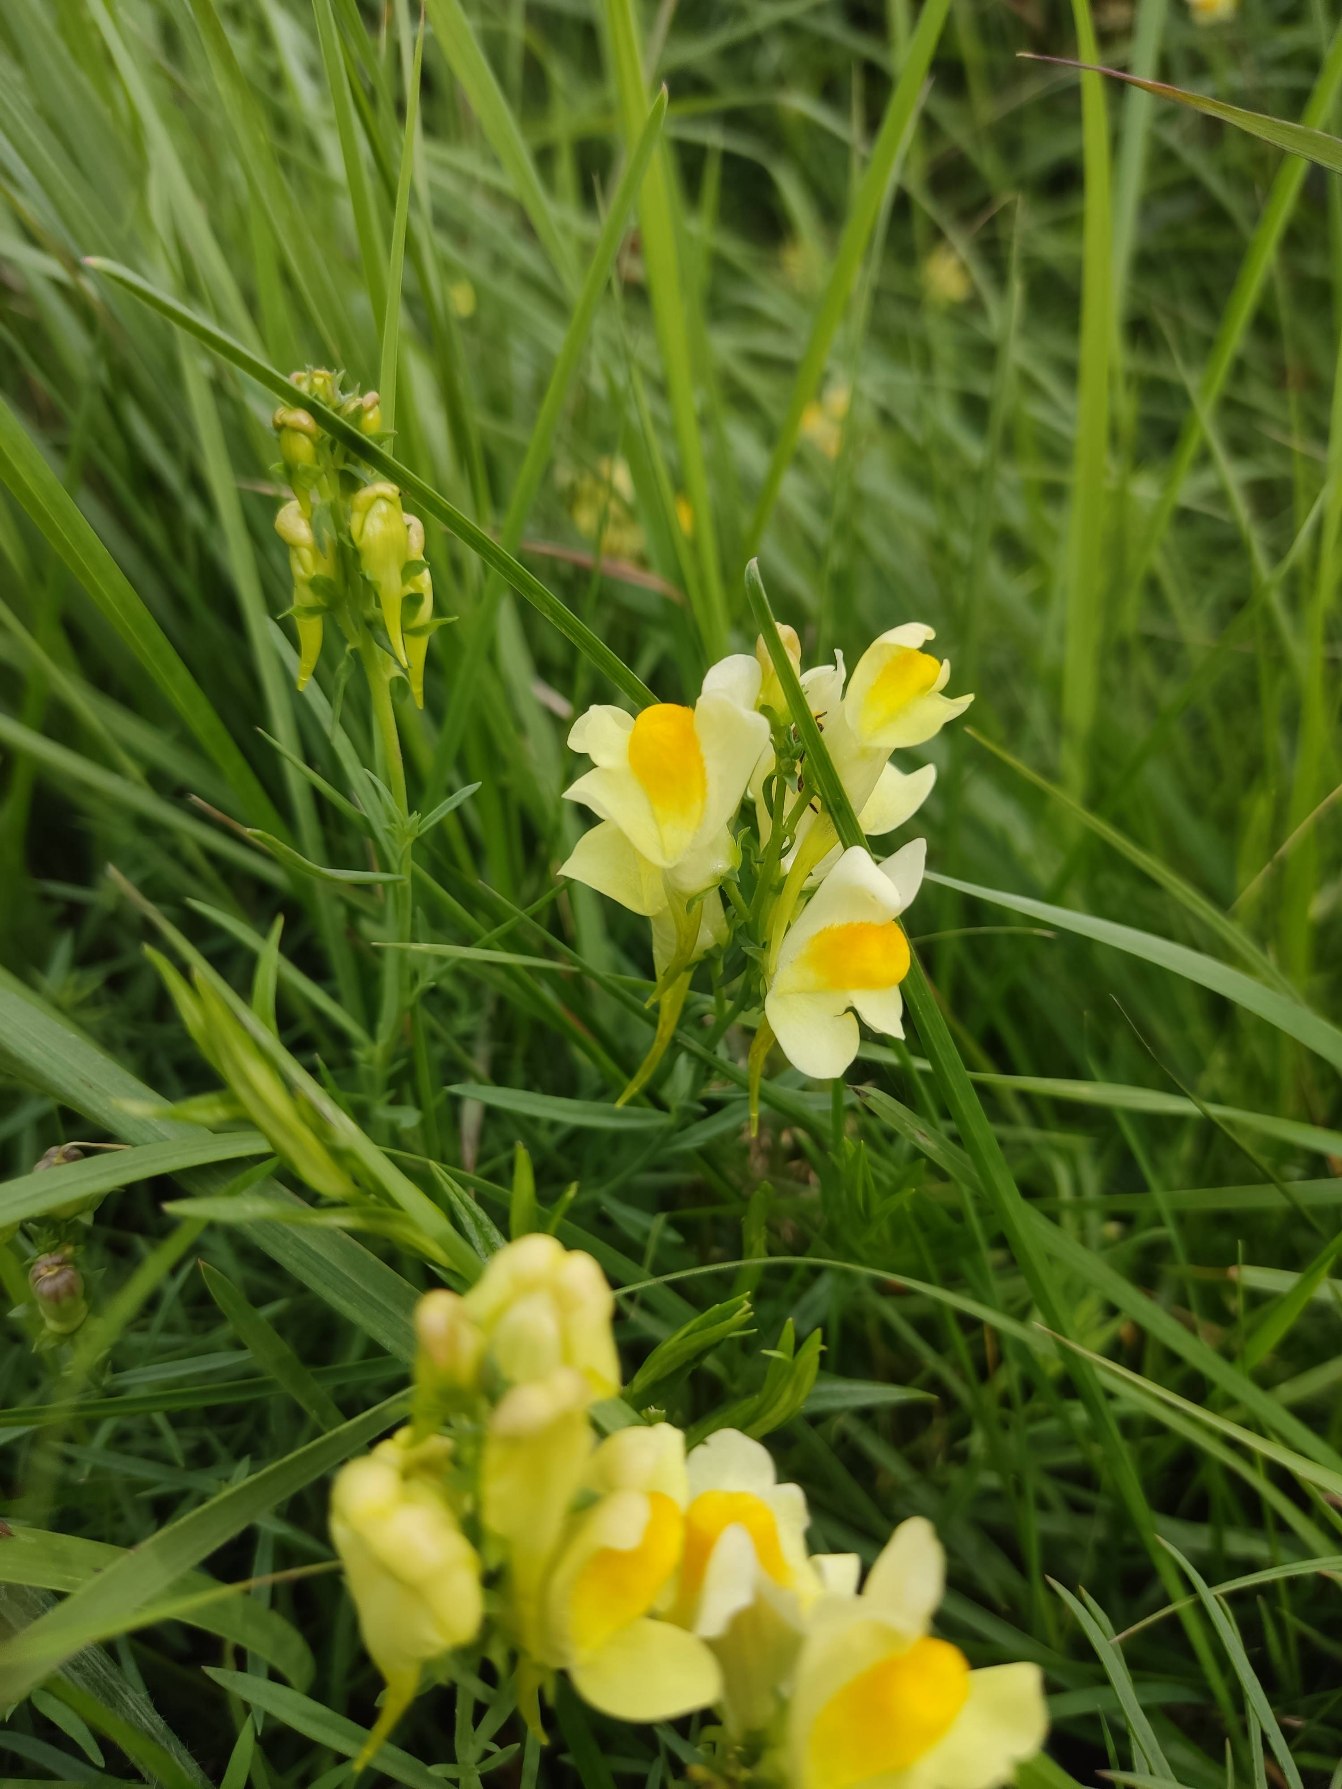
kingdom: Plantae
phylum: Tracheophyta
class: Magnoliopsida
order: Lamiales
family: Plantaginaceae
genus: Linaria
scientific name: Linaria vulgaris
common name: Almindelig torskemund
